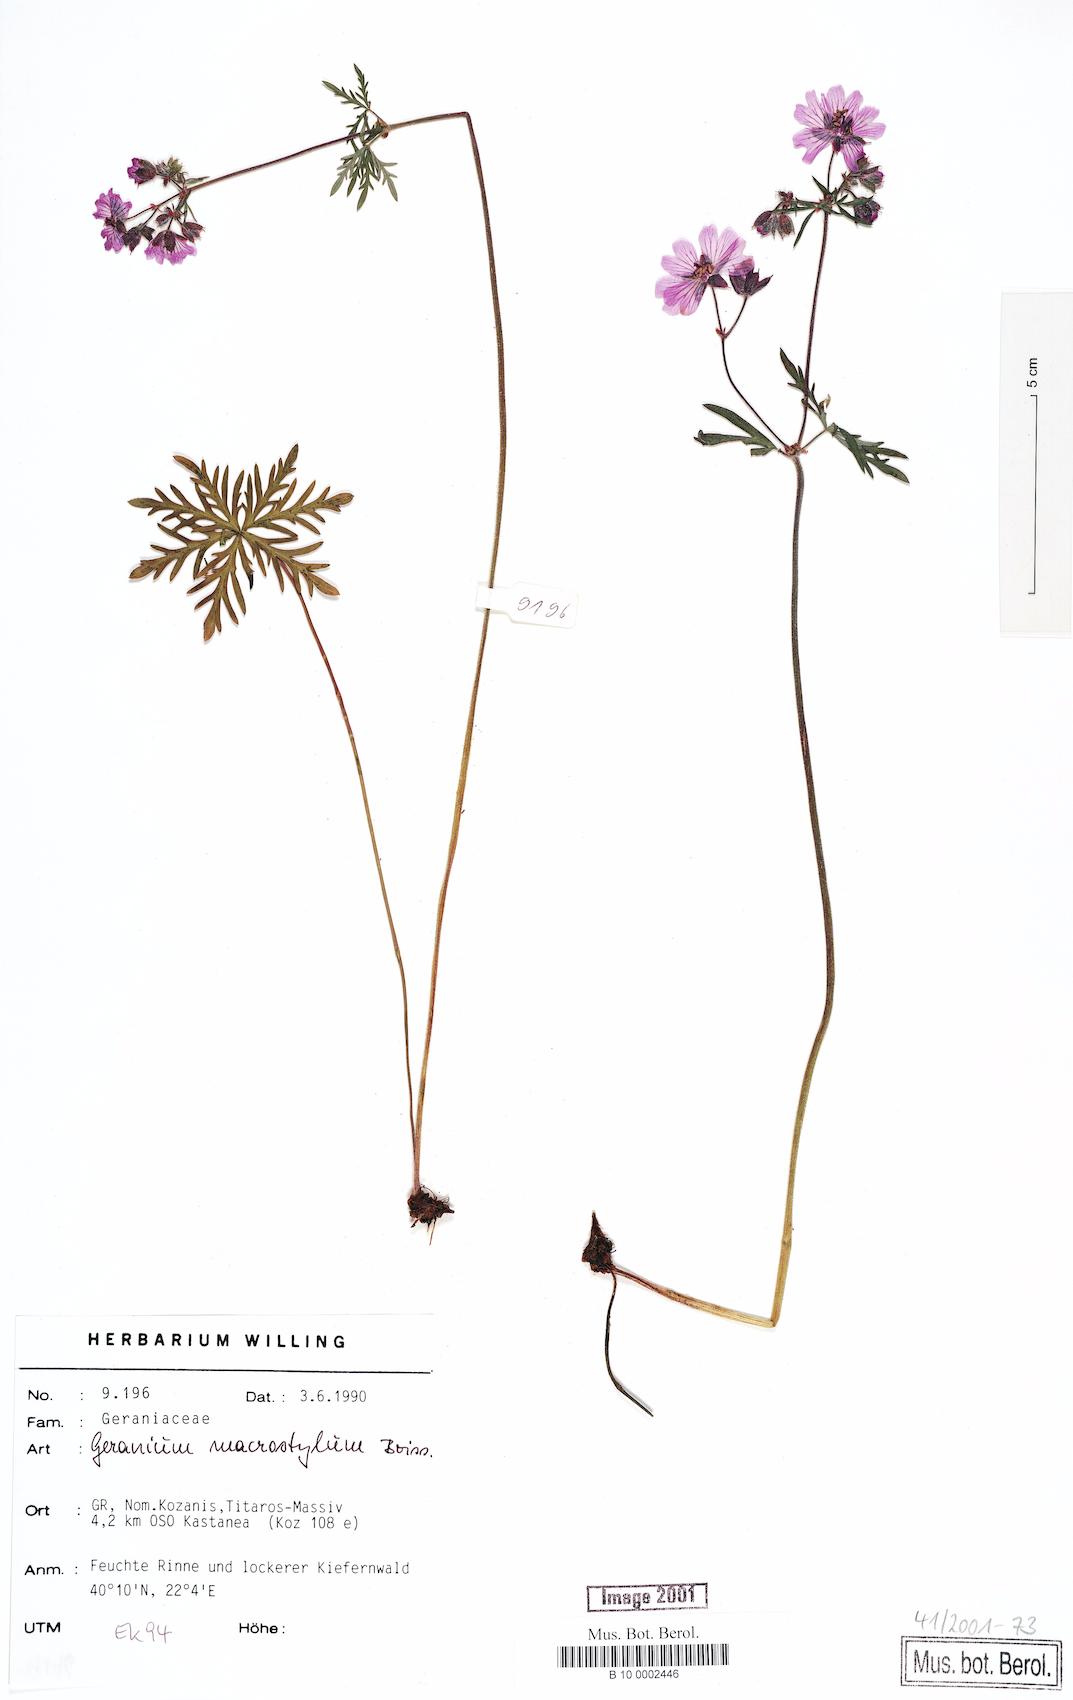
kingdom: Plantae
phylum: Tracheophyta
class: Magnoliopsida
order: Geraniales
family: Geraniaceae
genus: Geranium
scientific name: Geranium macrostylum
